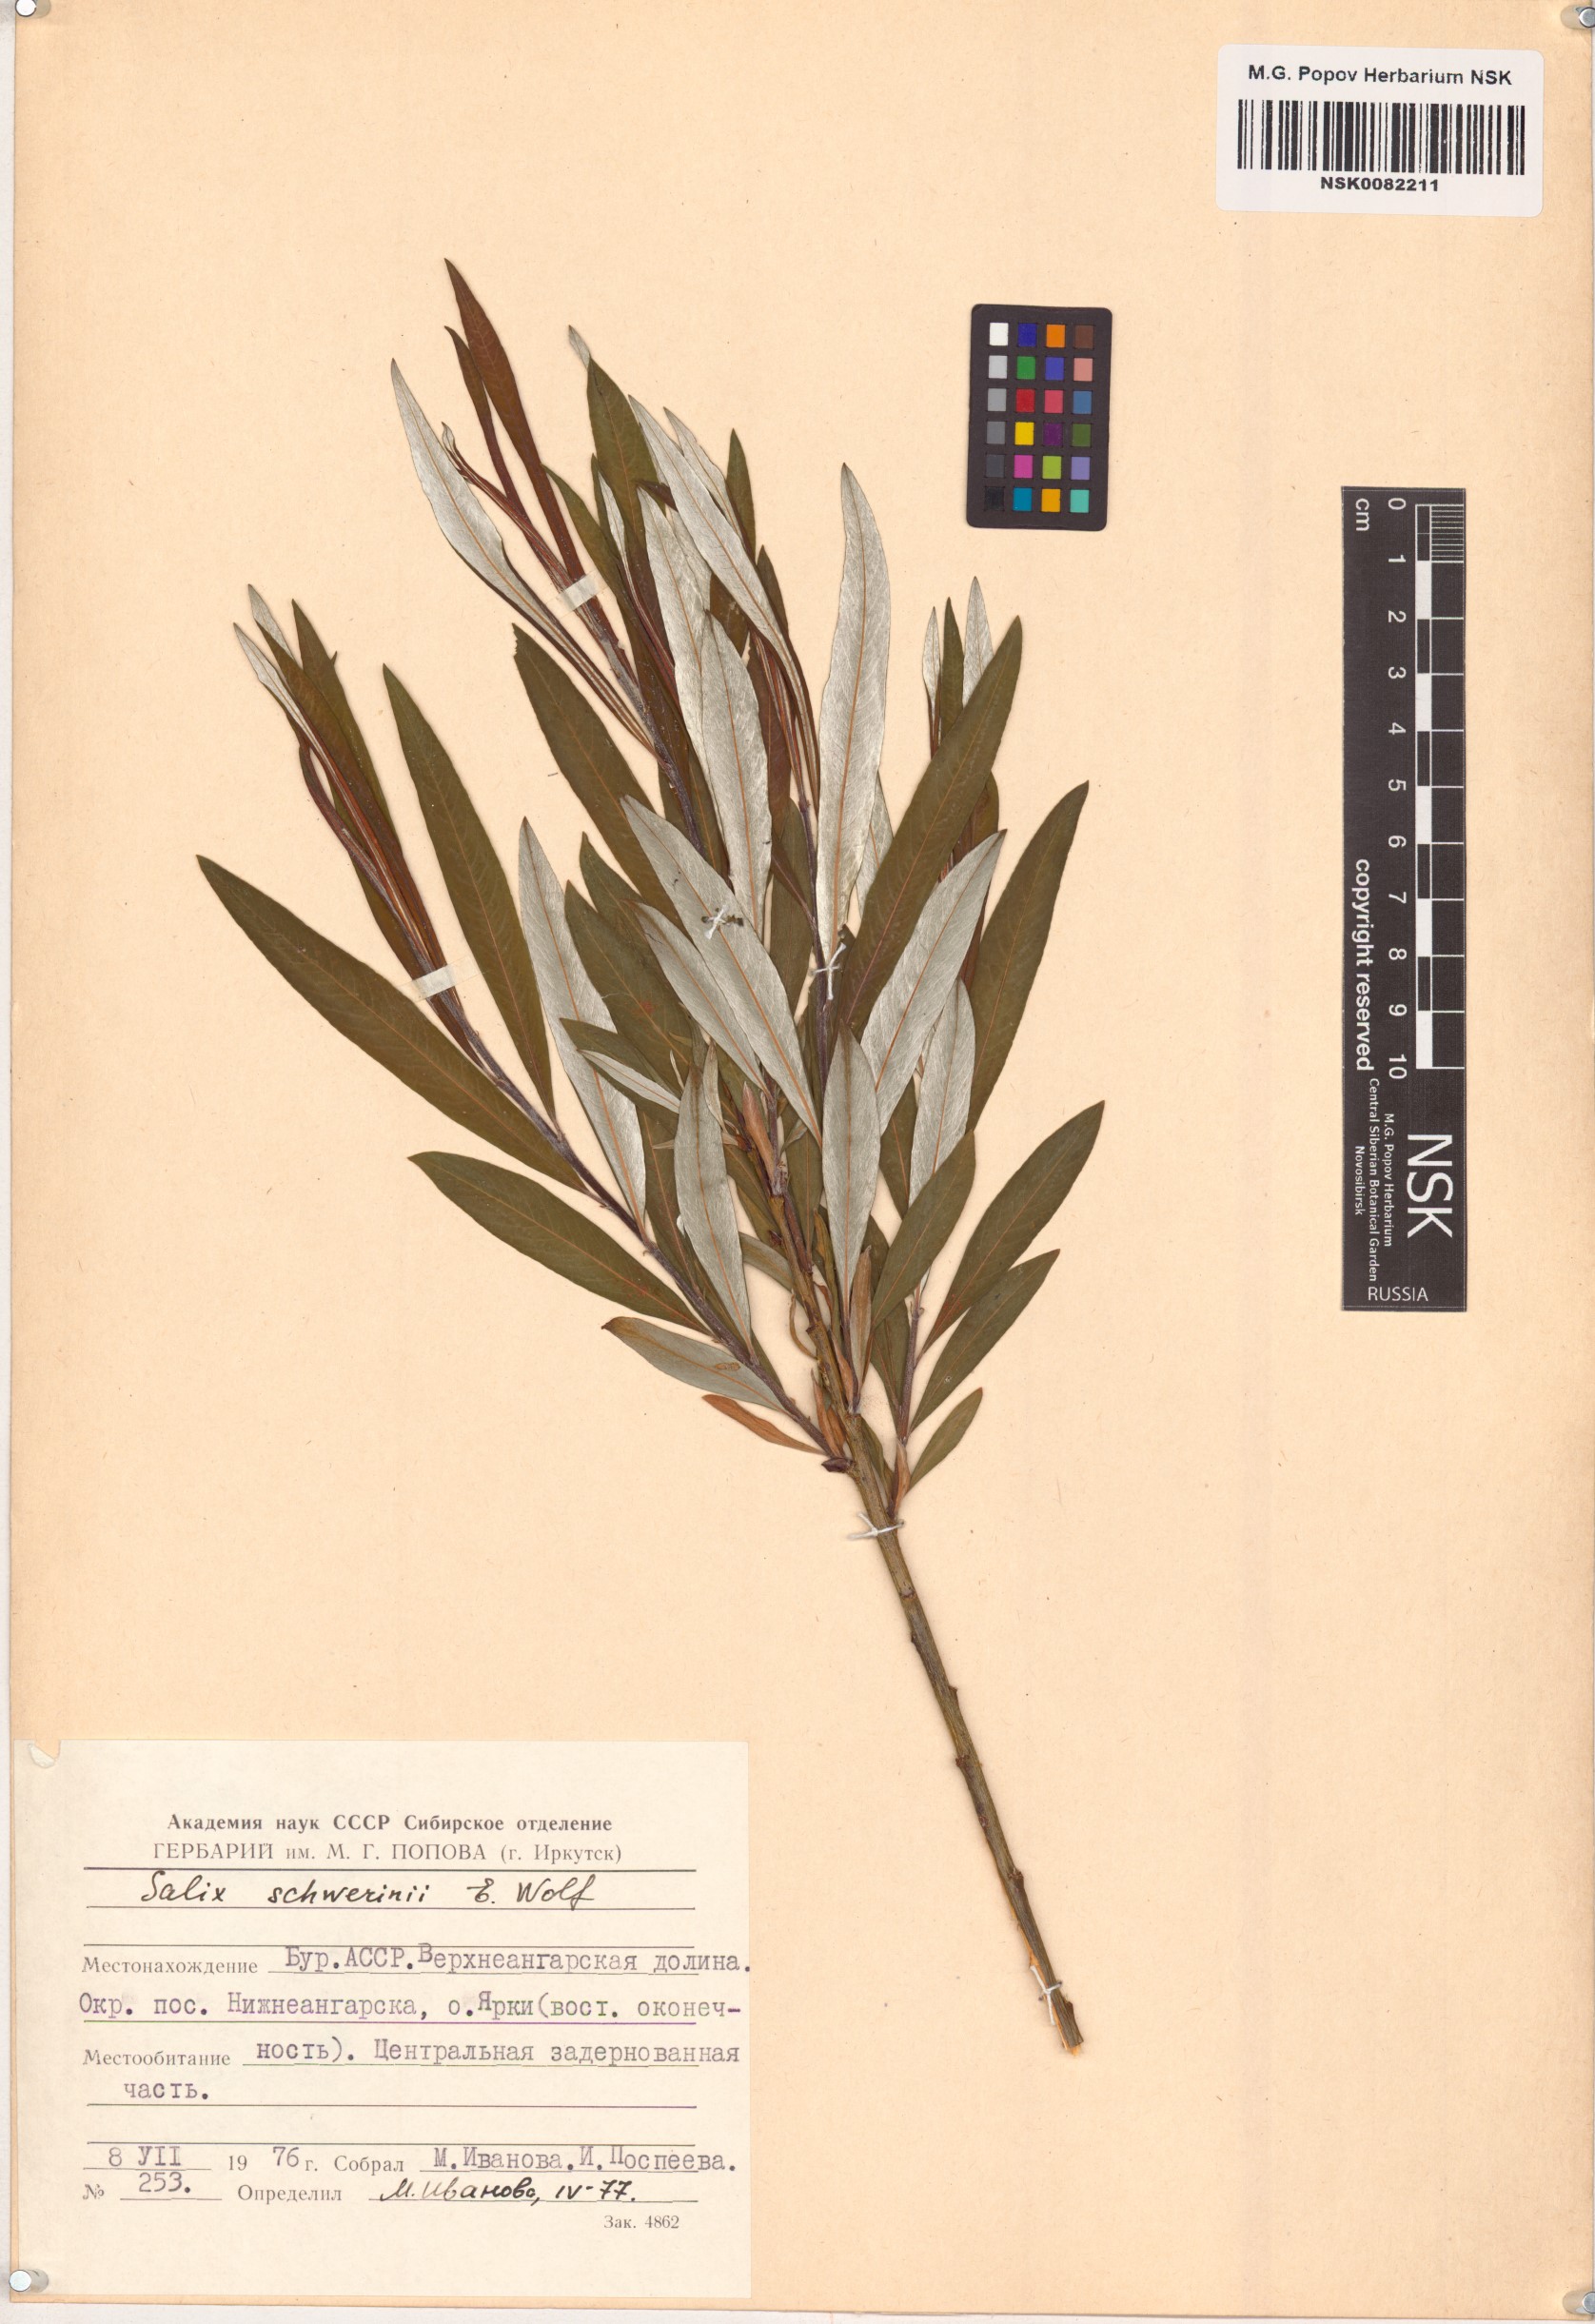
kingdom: Plantae
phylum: Tracheophyta
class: Magnoliopsida
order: Malpighiales
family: Salicaceae
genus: Salix
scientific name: Salix schwerinii
